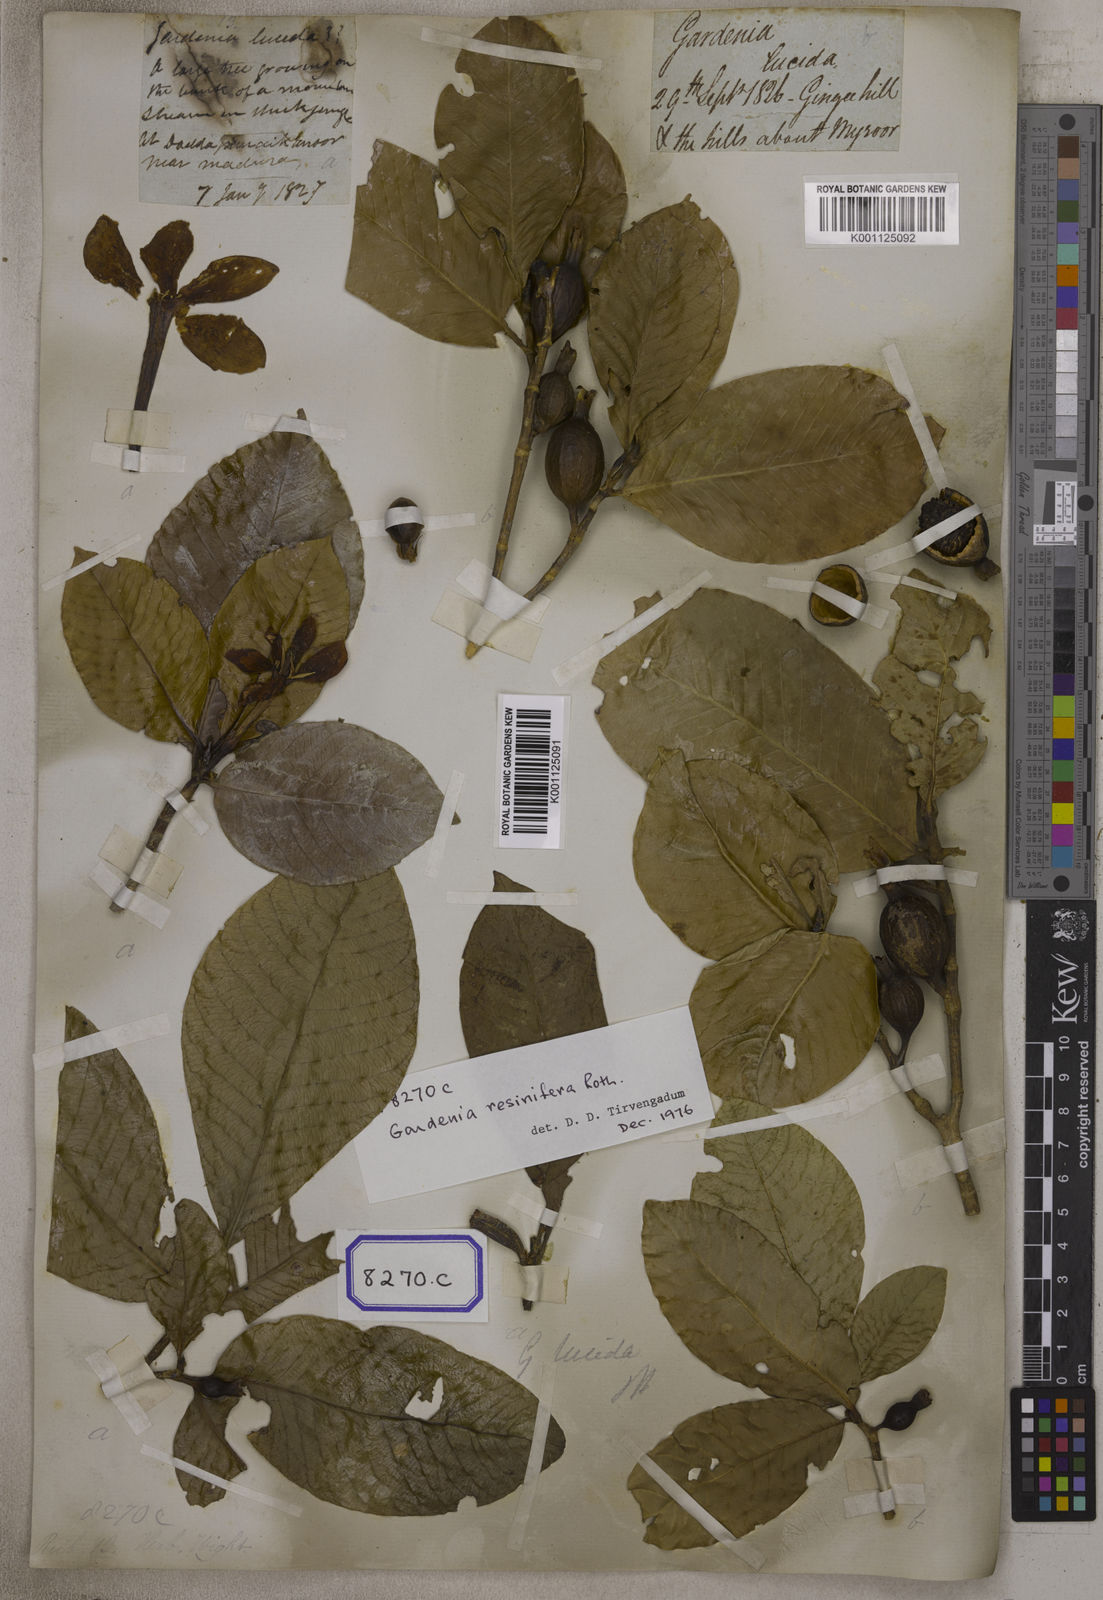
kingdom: Plantae
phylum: Tracheophyta
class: Magnoliopsida
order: Gentianales
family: Rubiaceae
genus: Gardenia
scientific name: Gardenia resinifera
